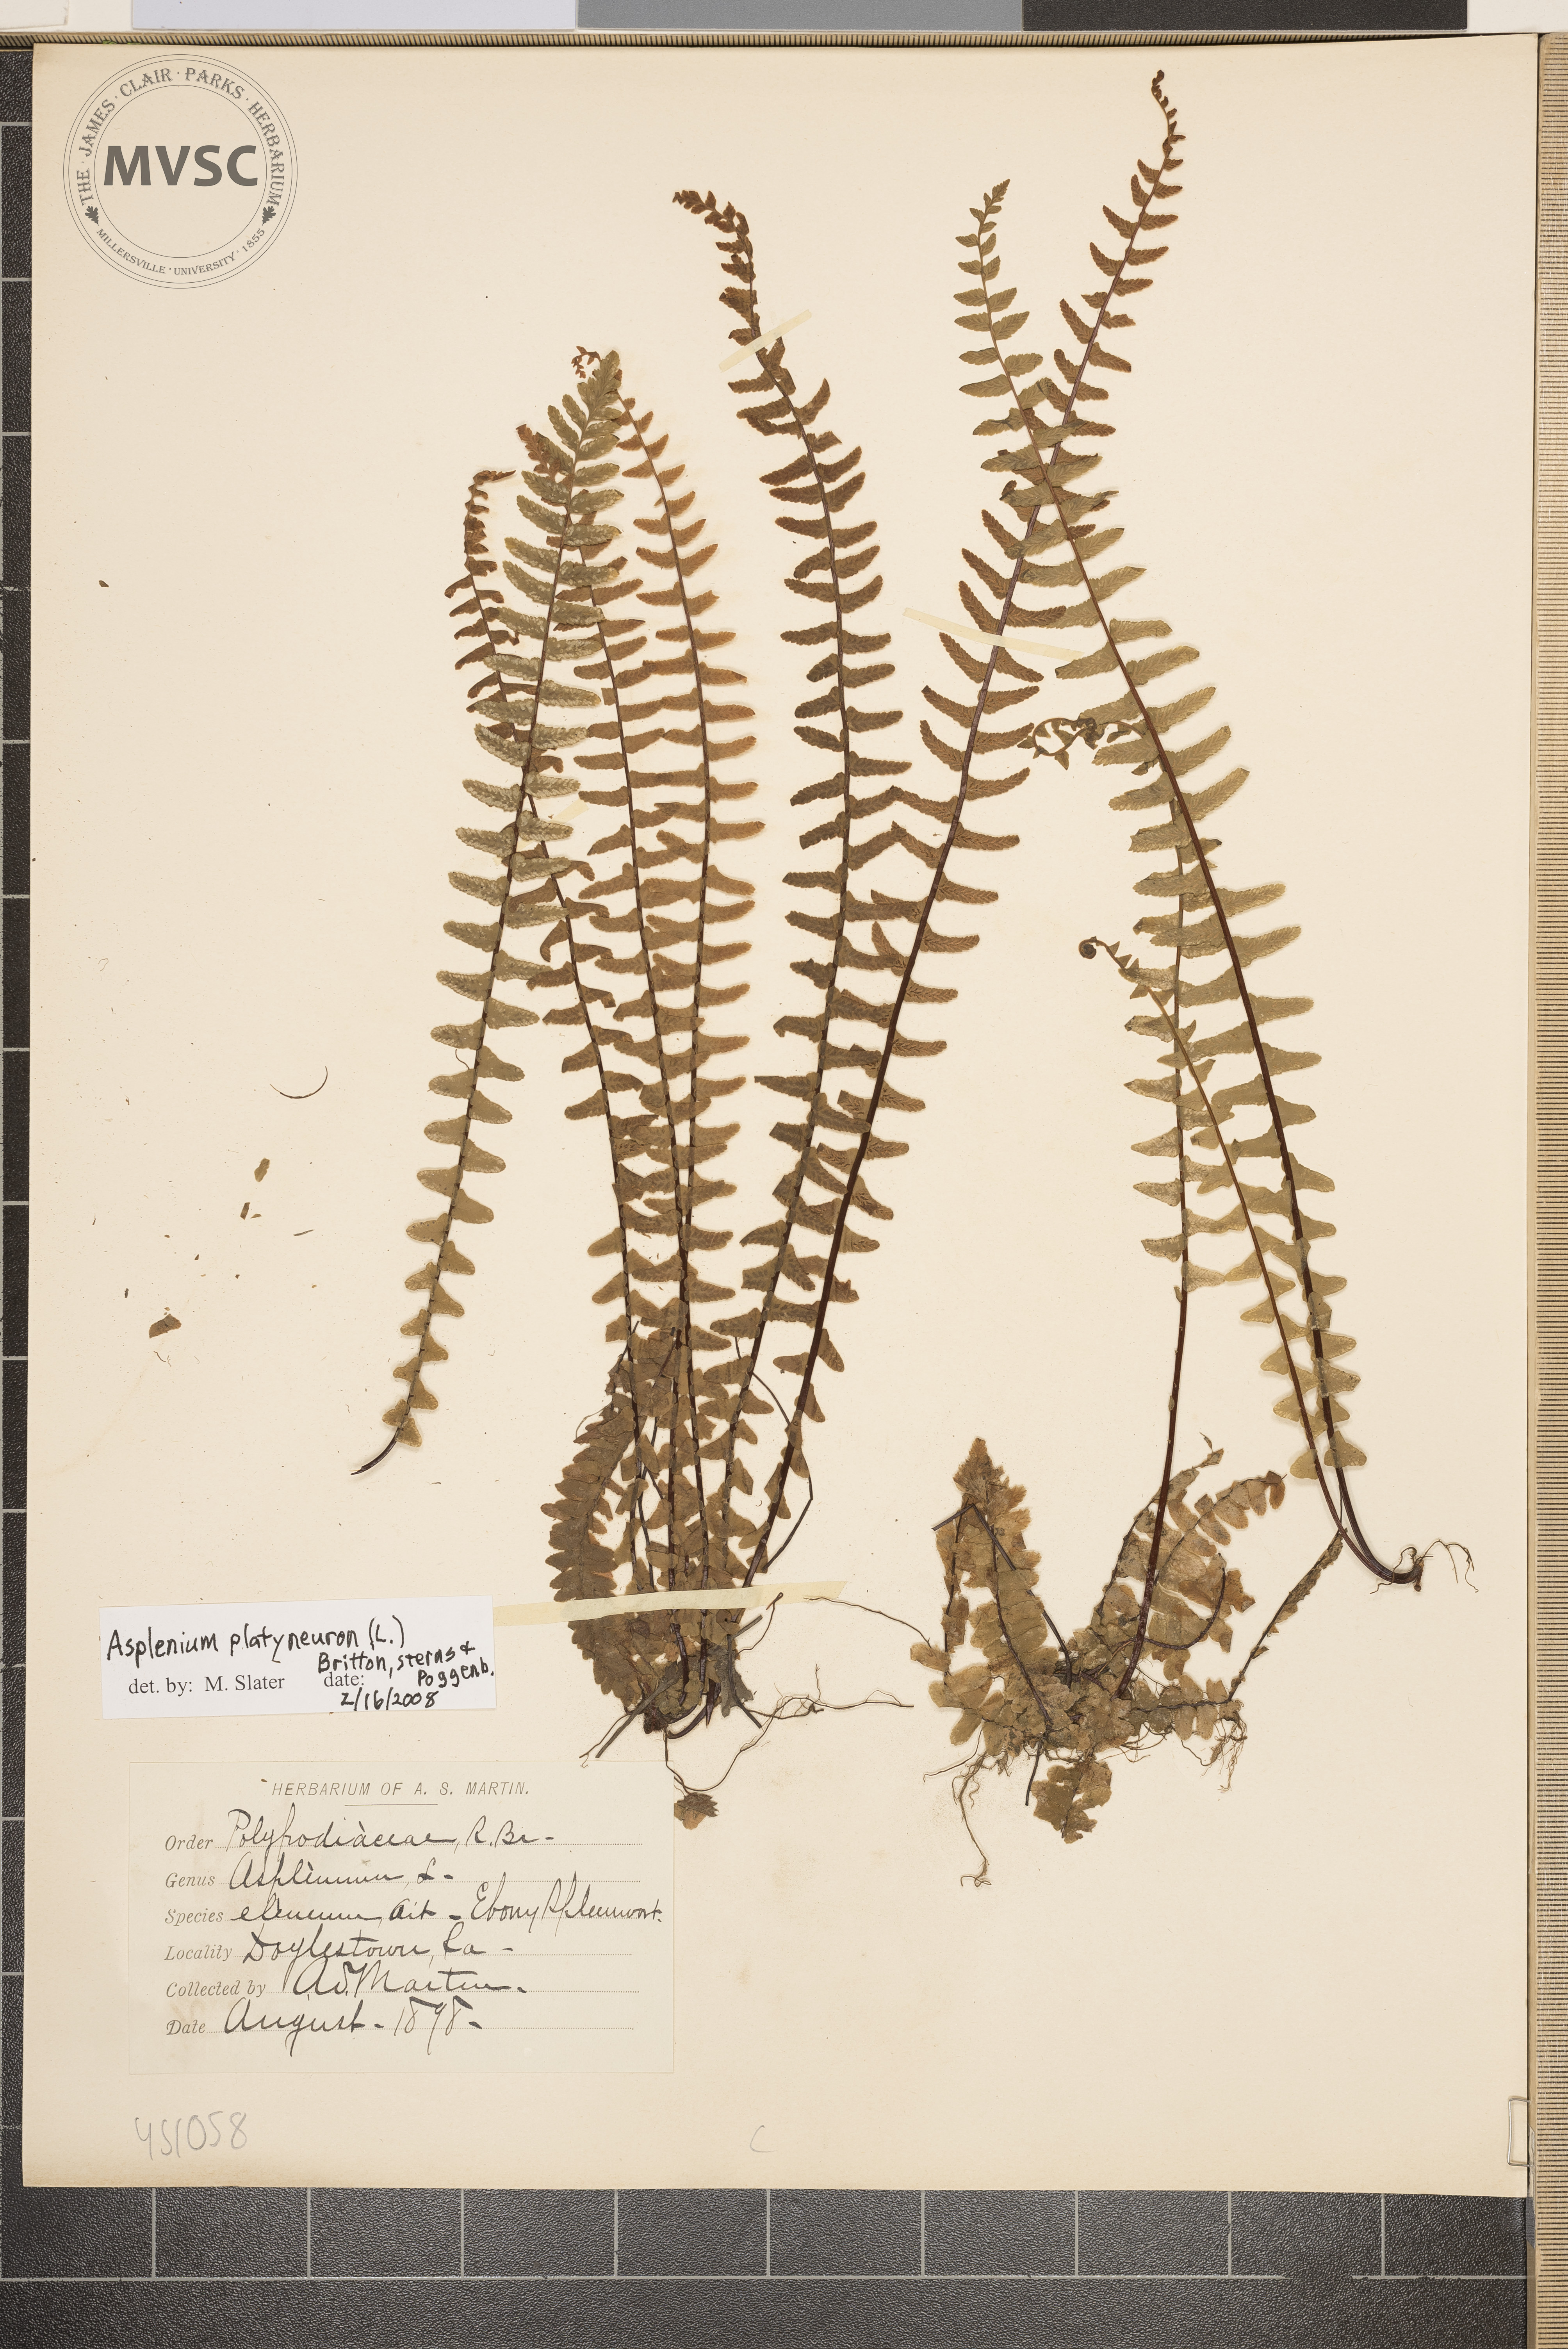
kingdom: Plantae
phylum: Tracheophyta
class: Polypodiopsida
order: Polypodiales
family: Aspleniaceae
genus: Asplenium
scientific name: Asplenium platyneuron
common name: Ebony Spleenwort
